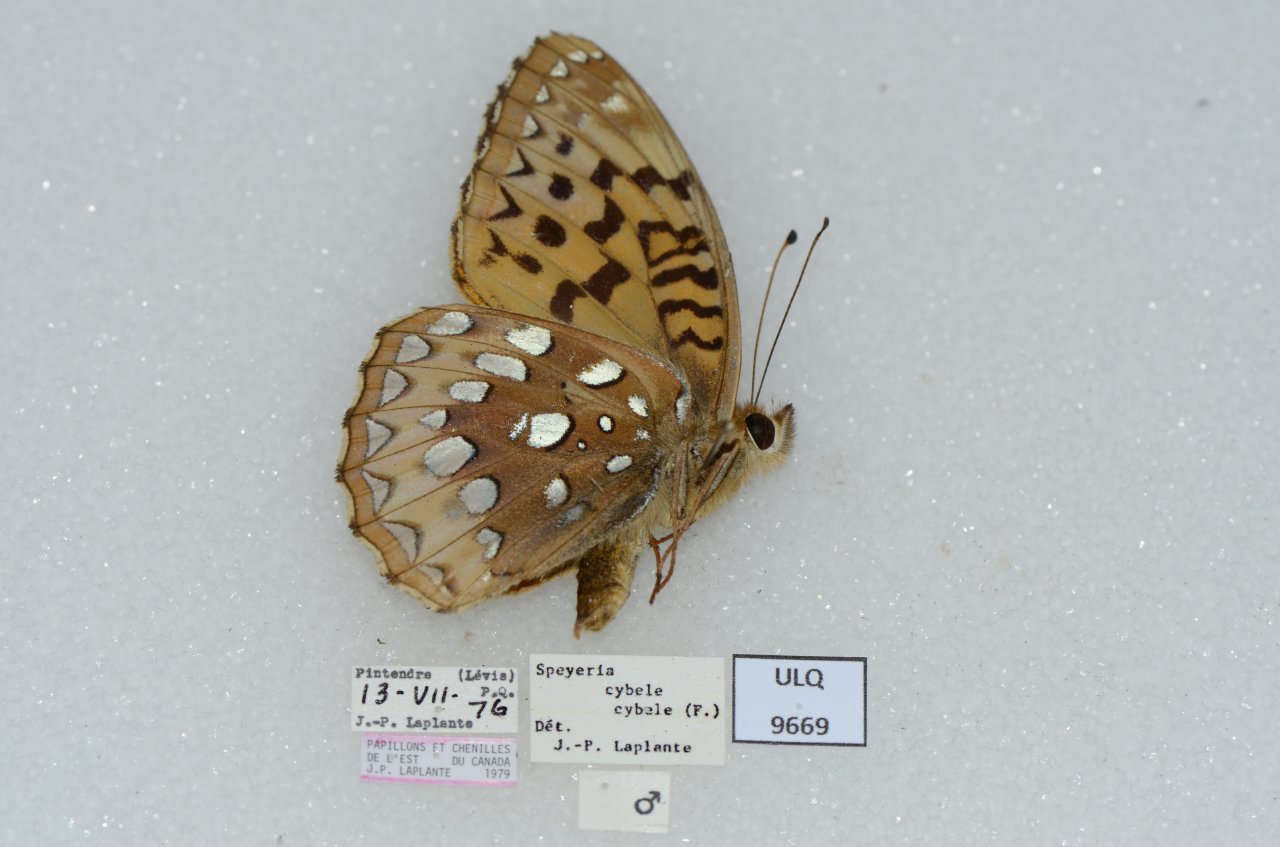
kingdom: Animalia
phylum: Arthropoda
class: Insecta
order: Lepidoptera
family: Nymphalidae
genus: Speyeria
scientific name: Speyeria cybele
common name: Great Spangled Fritillary
